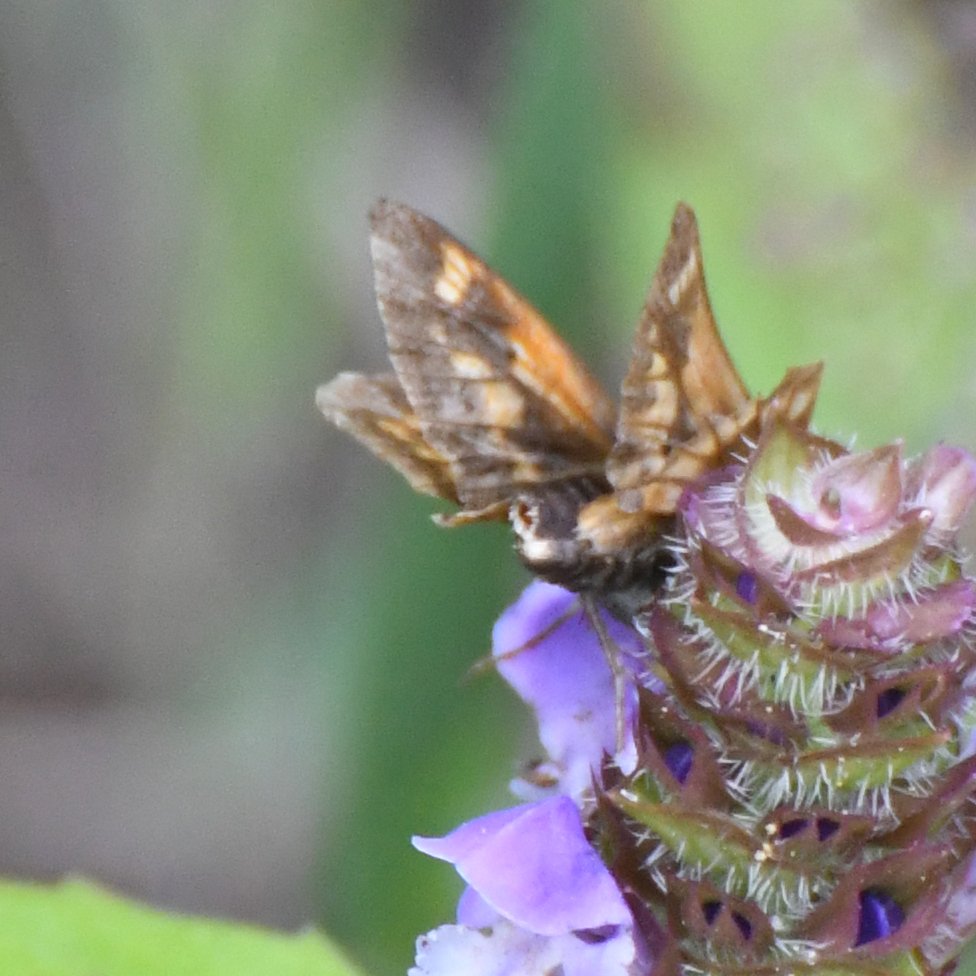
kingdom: Animalia
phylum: Arthropoda
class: Insecta
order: Lepidoptera
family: Hesperiidae
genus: Euphyes
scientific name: Euphyes
